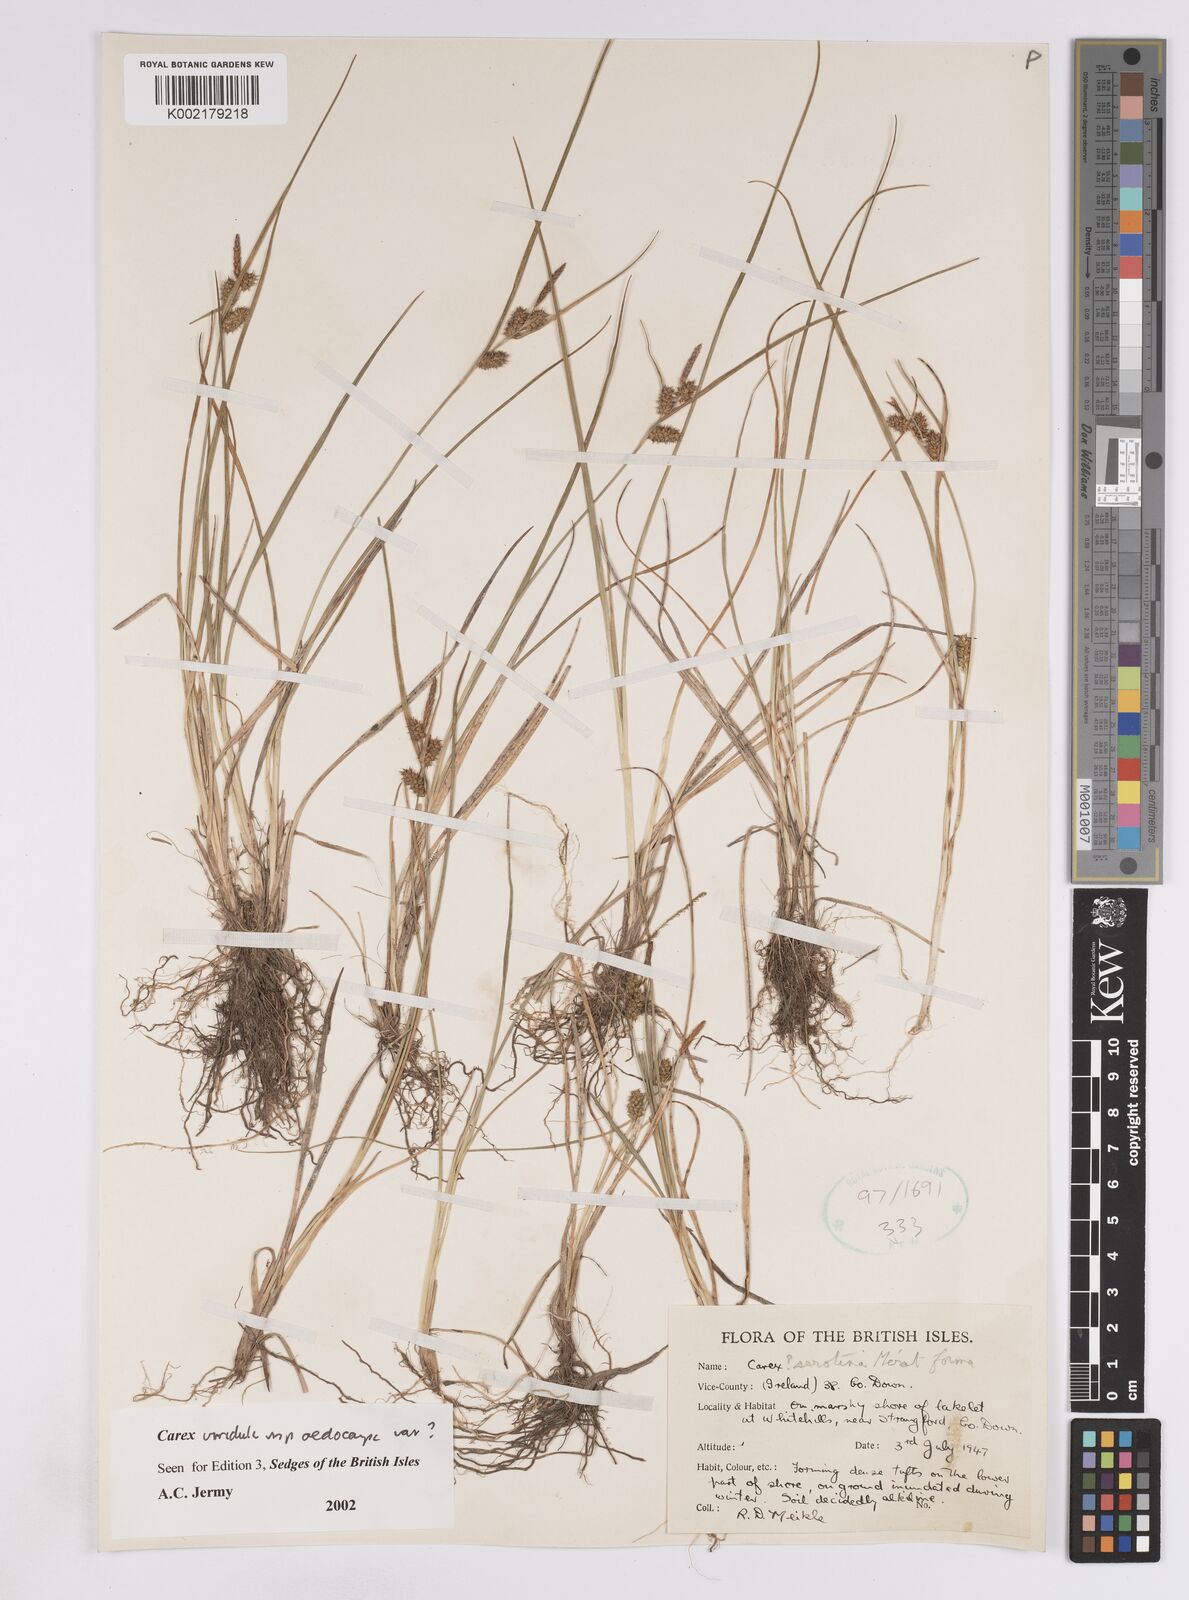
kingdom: Plantae
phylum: Tracheophyta
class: Liliopsida
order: Poales
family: Cyperaceae
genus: Carex
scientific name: Carex demissa
